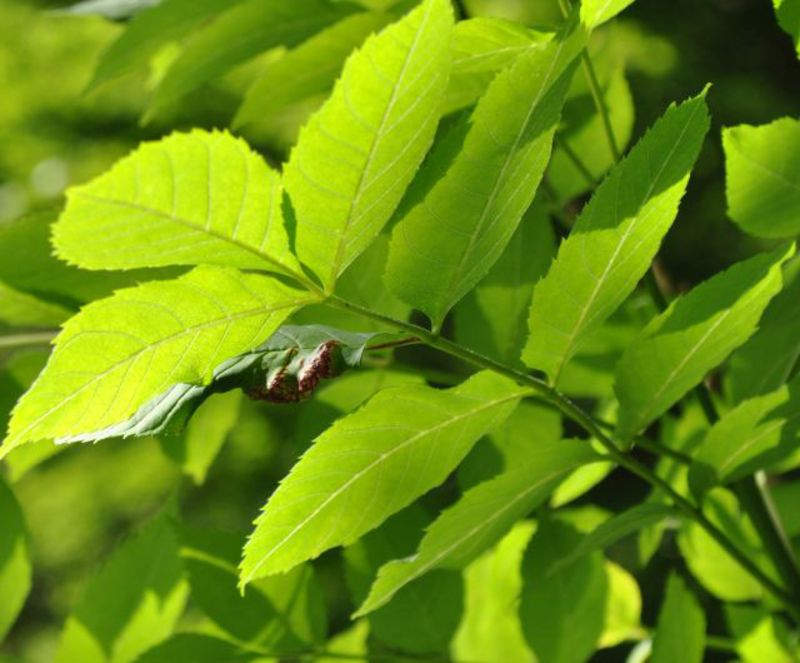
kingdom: Animalia
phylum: Arthropoda
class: Insecta
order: Hemiptera
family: Triozidae
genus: Trioza
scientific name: Trioza flavipennis
